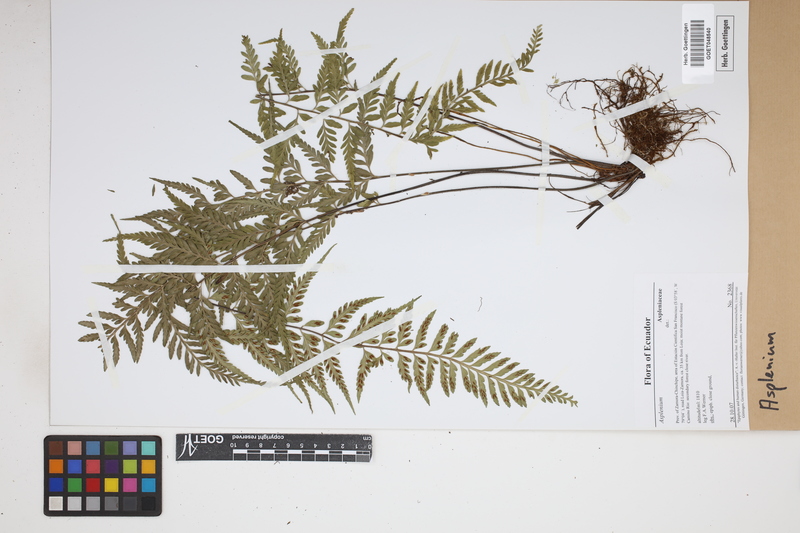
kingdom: Plantae
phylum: Tracheophyta
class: Polypodiopsida
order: Polypodiales
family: Aspleniaceae
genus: Asplenium
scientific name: Asplenium
